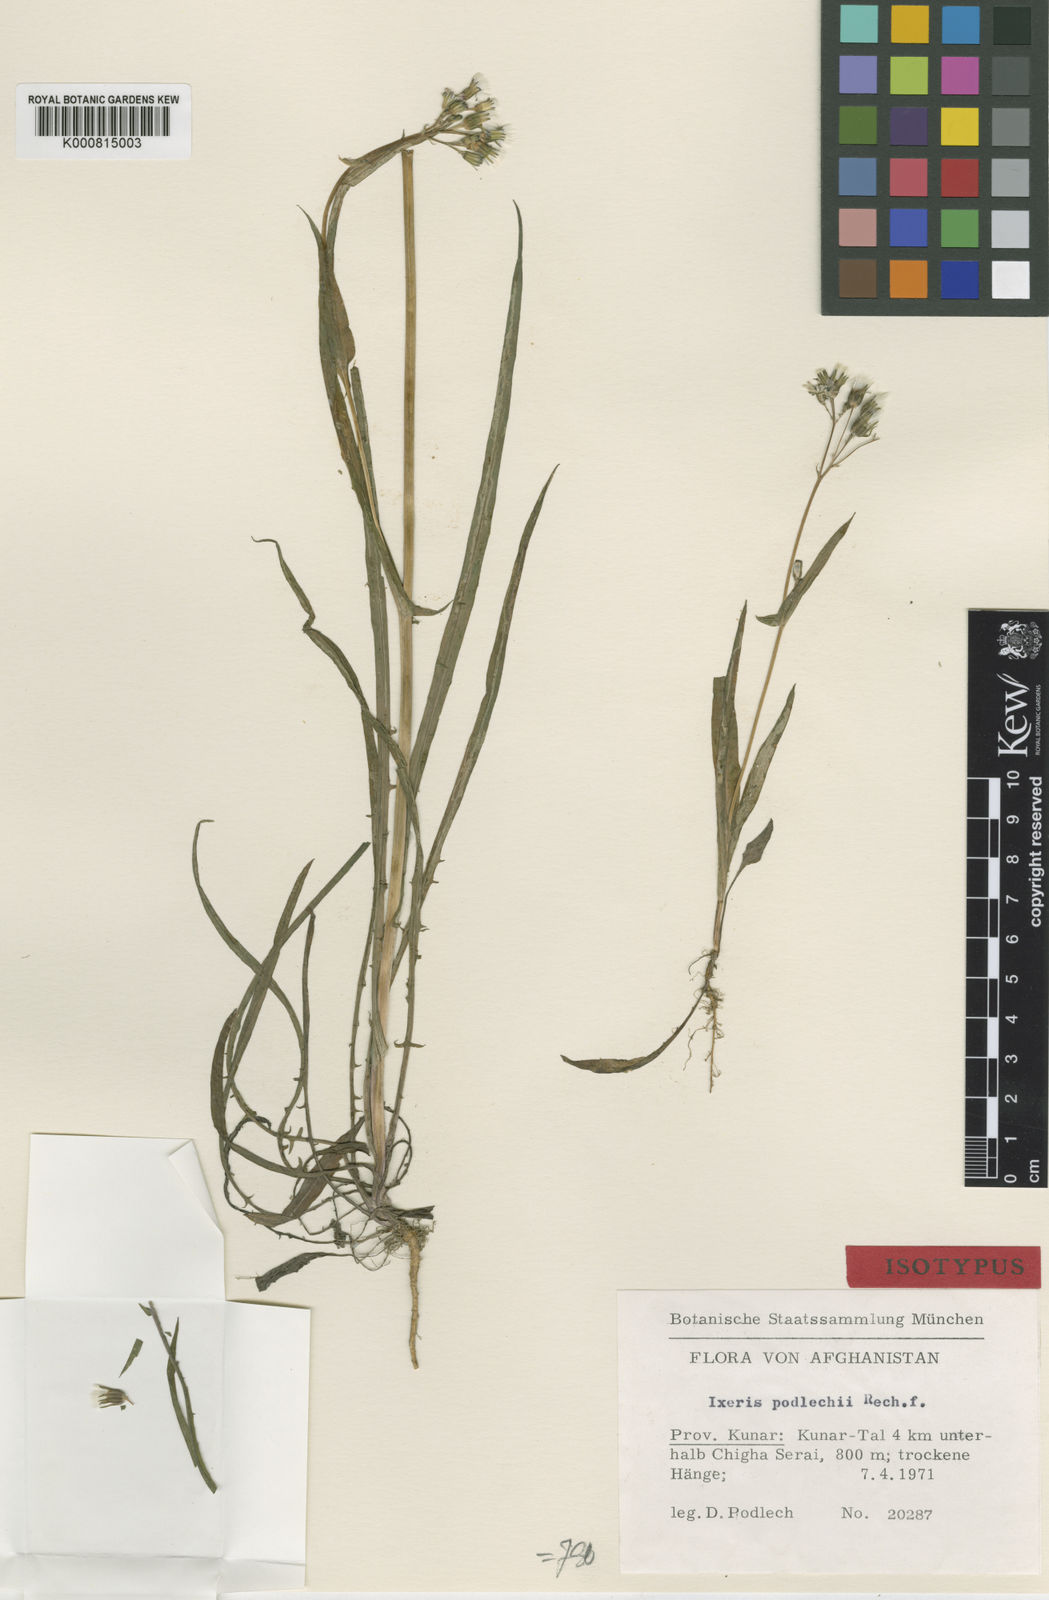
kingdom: Plantae
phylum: Tracheophyta
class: Magnoliopsida
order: Asterales
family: Asteraceae
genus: Ixeris
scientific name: Ixeris retrorsidens
